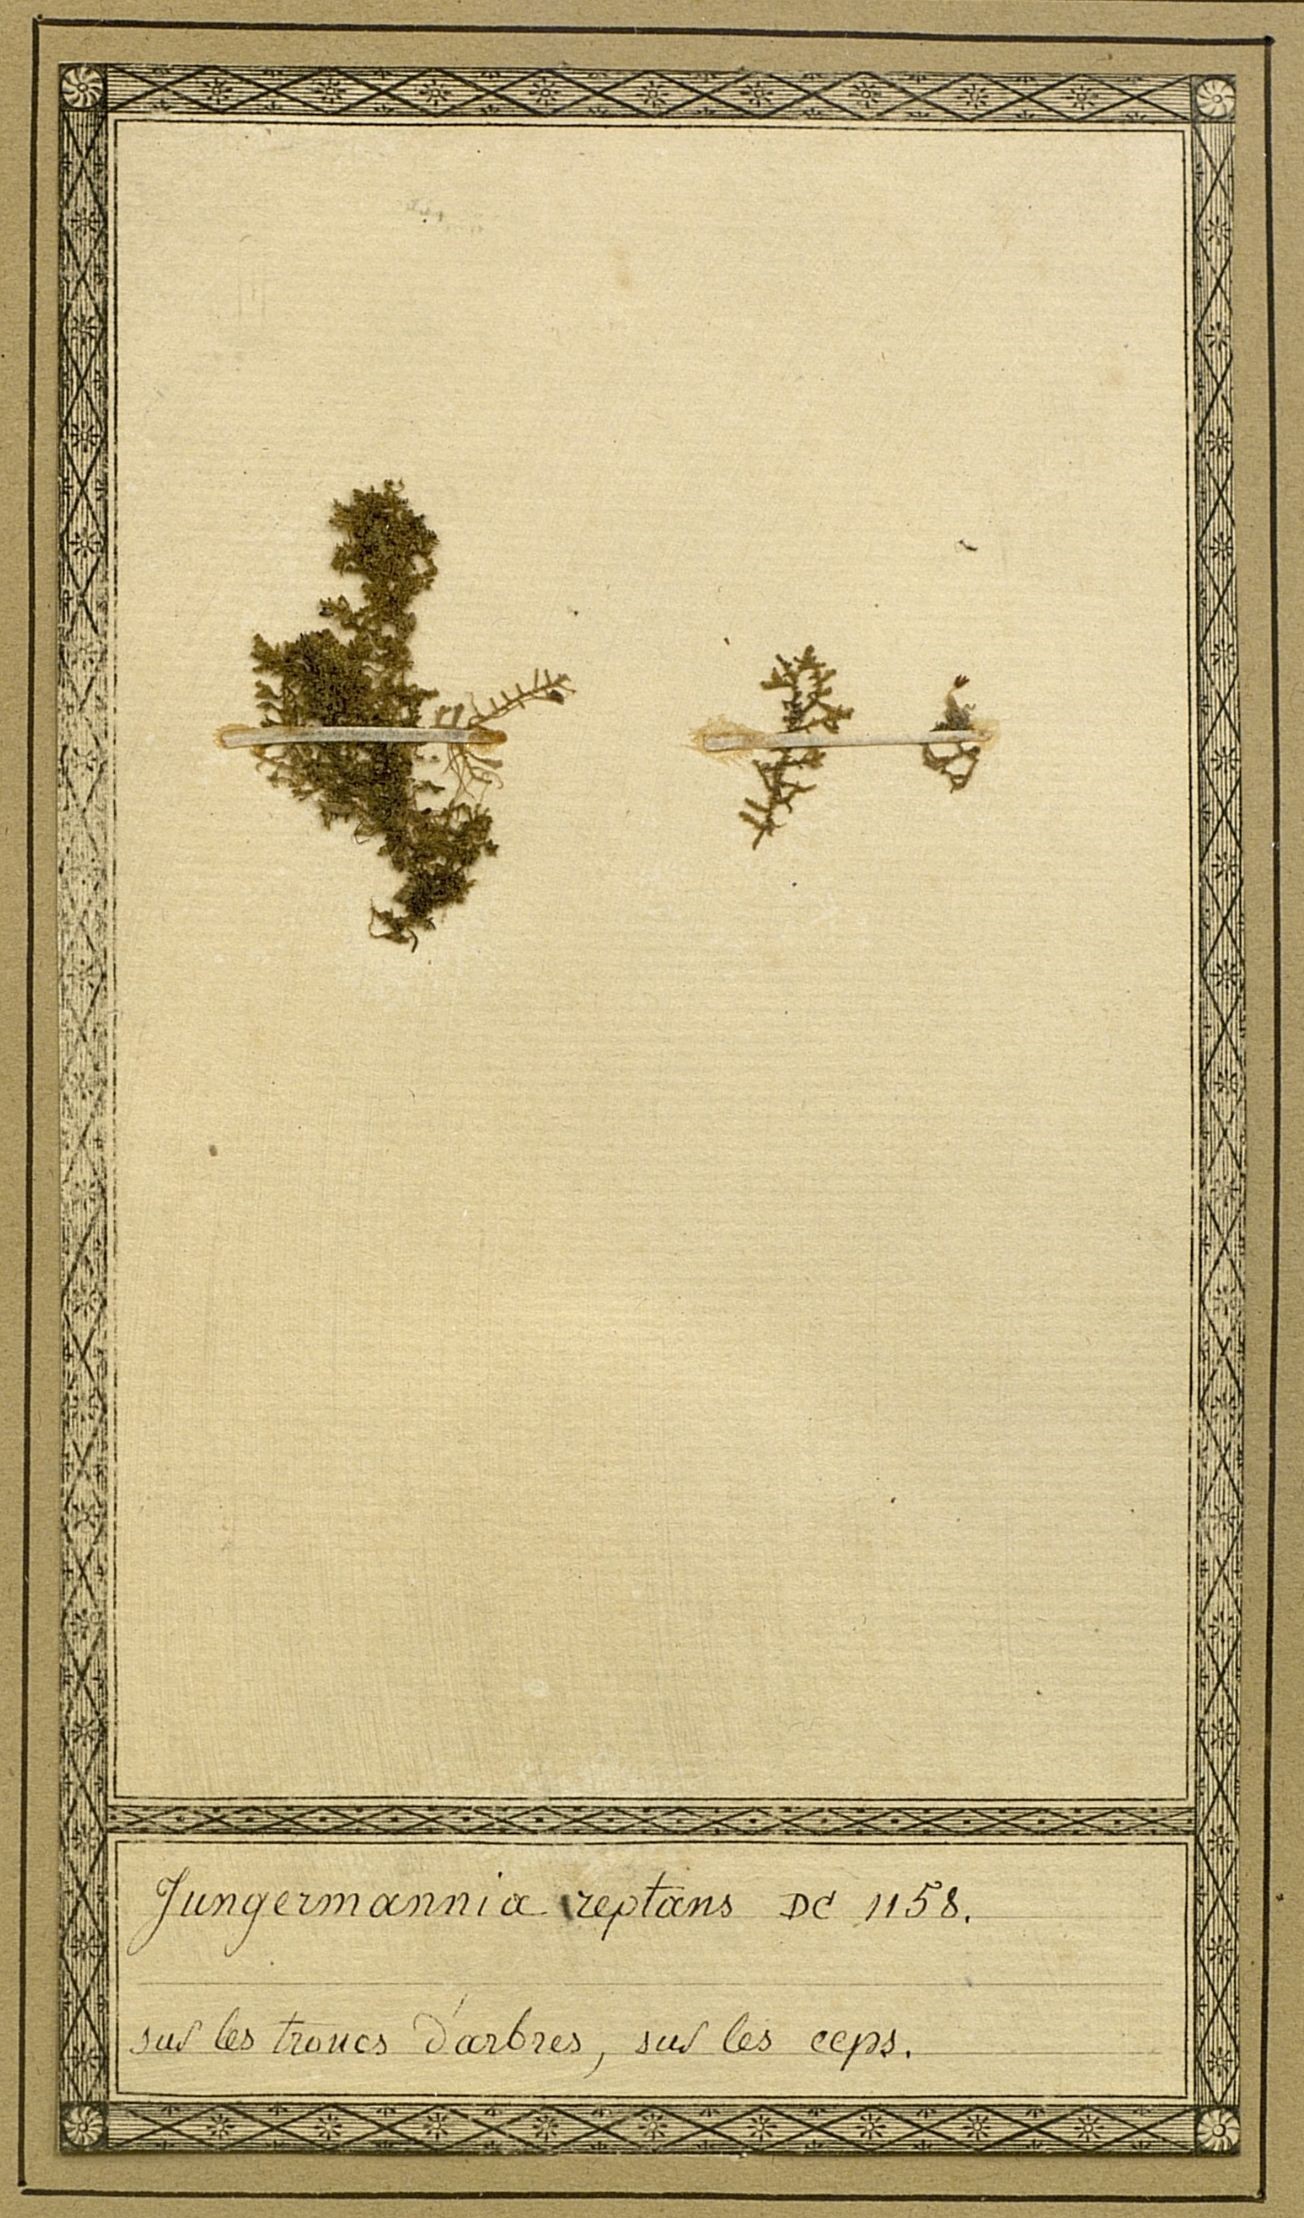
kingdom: Plantae
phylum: Marchantiophyta
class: Jungermanniopsida
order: Jungermanniales
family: Lepidoziaceae
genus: Lepidozia
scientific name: Lepidozia reptans
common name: Creeping fingerwort
